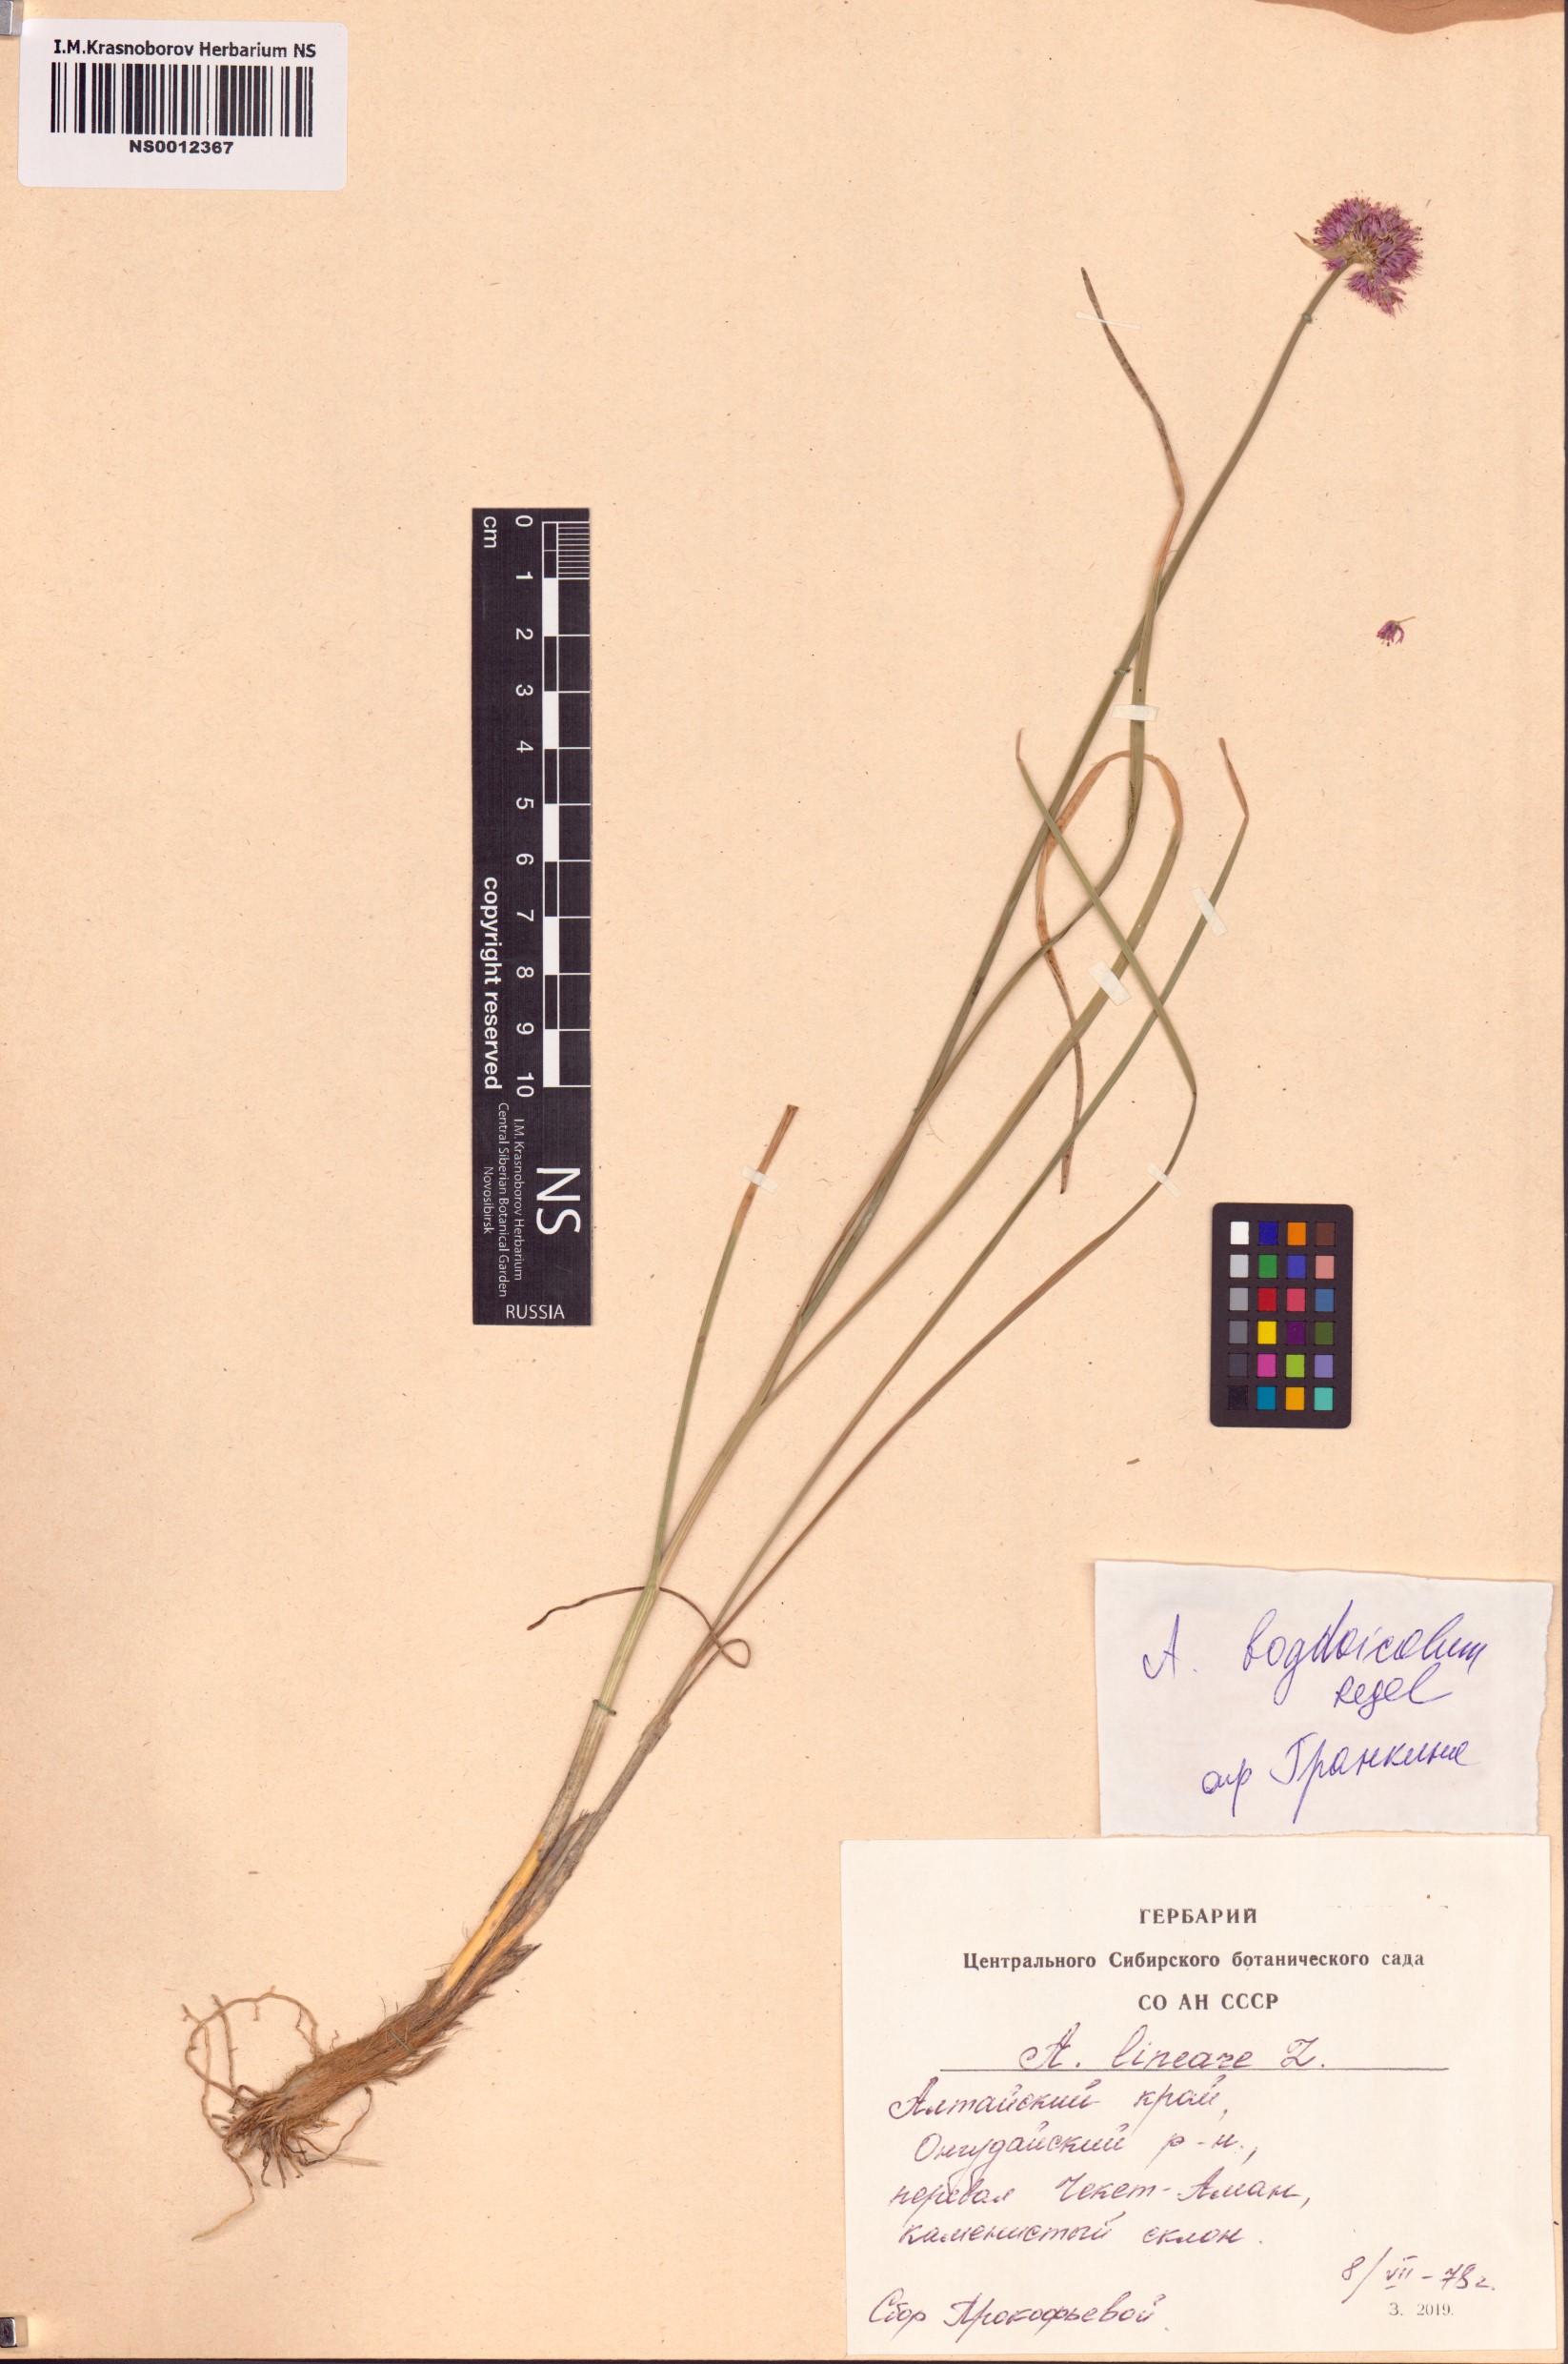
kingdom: Plantae
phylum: Tracheophyta
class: Liliopsida
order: Asparagales
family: Amaryllidaceae
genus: Allium
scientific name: Allium schrenkii
